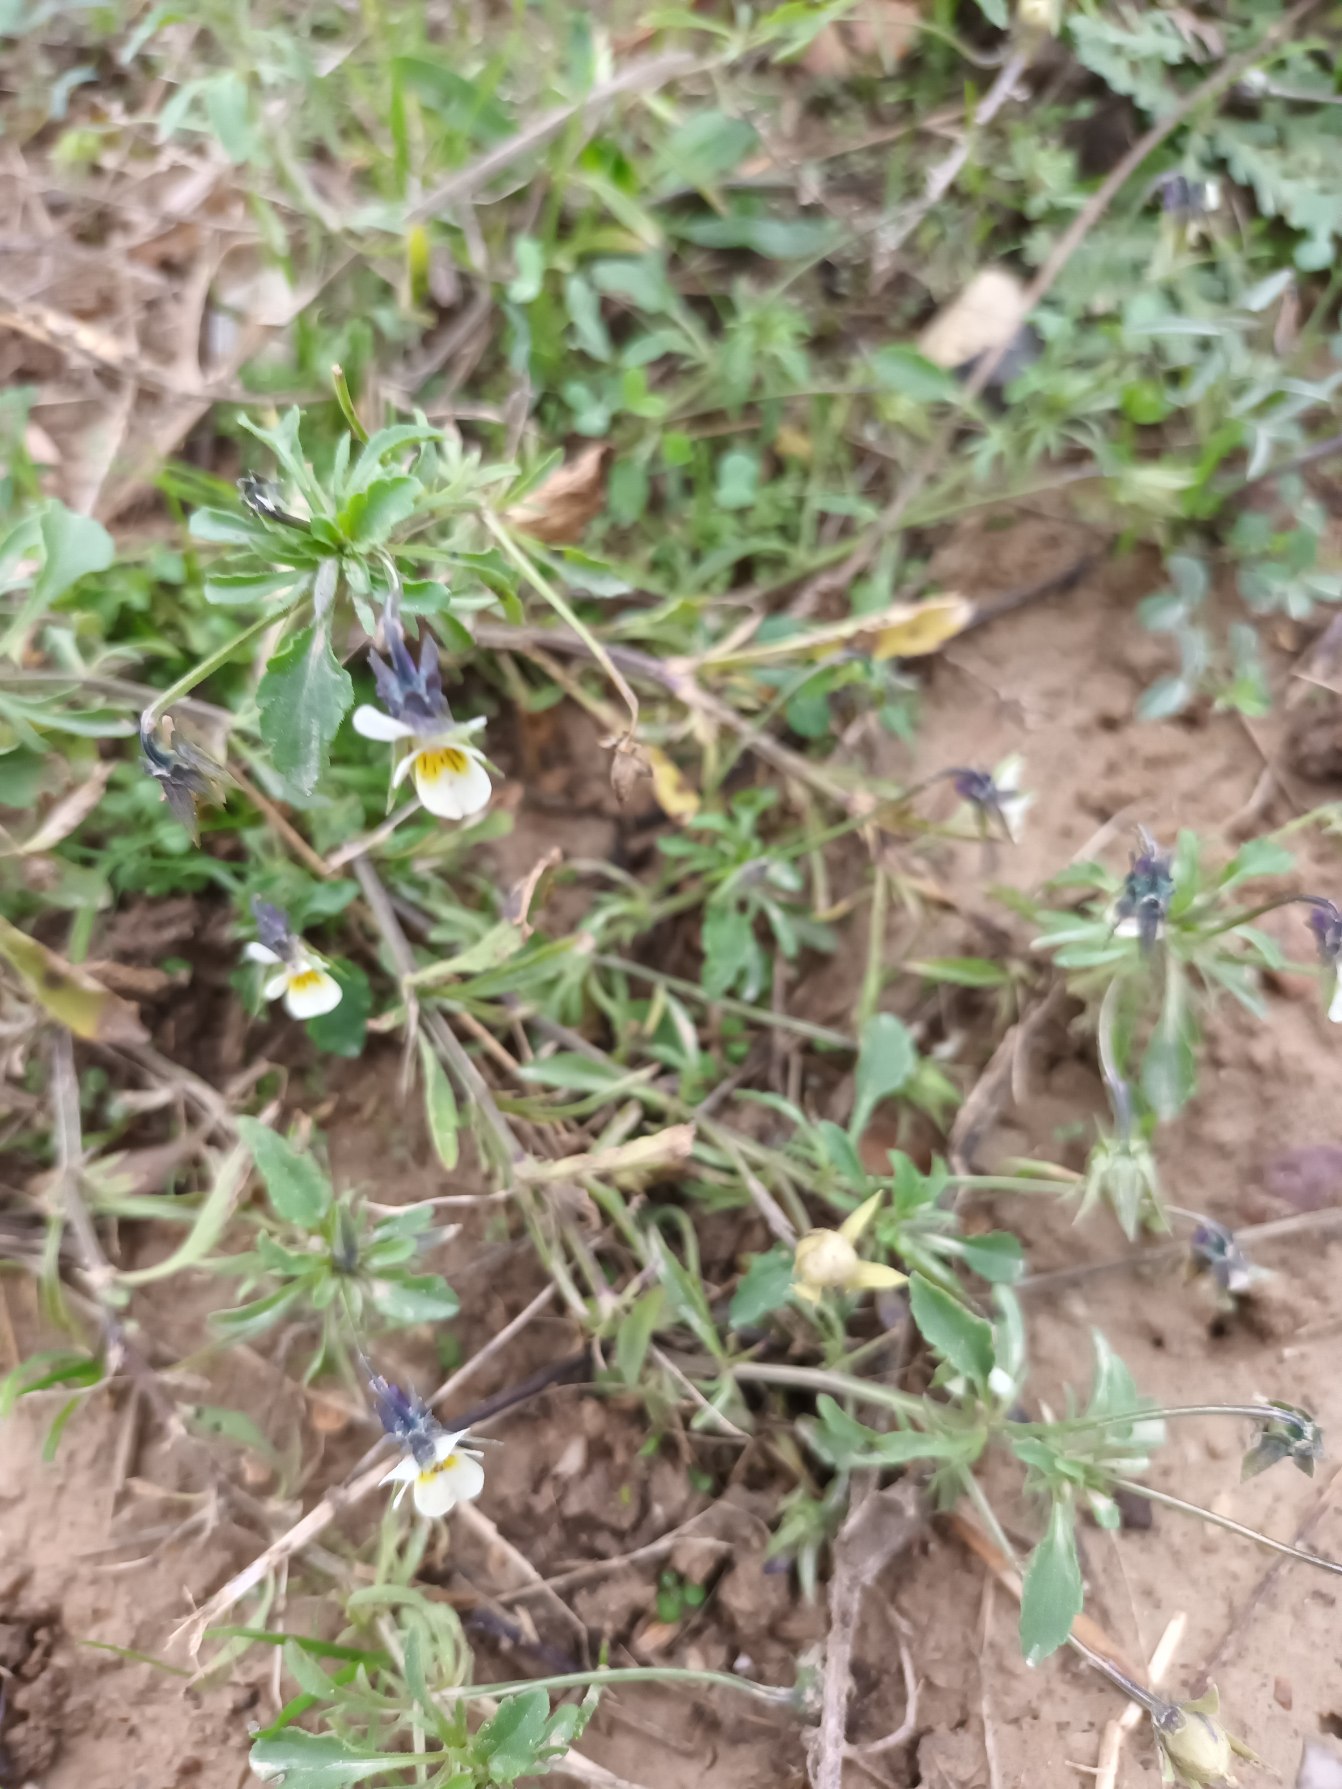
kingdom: Plantae
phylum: Tracheophyta
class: Magnoliopsida
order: Malpighiales
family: Violaceae
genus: Viola
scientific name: Viola arvensis
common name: Ager-stedmoderblomst
